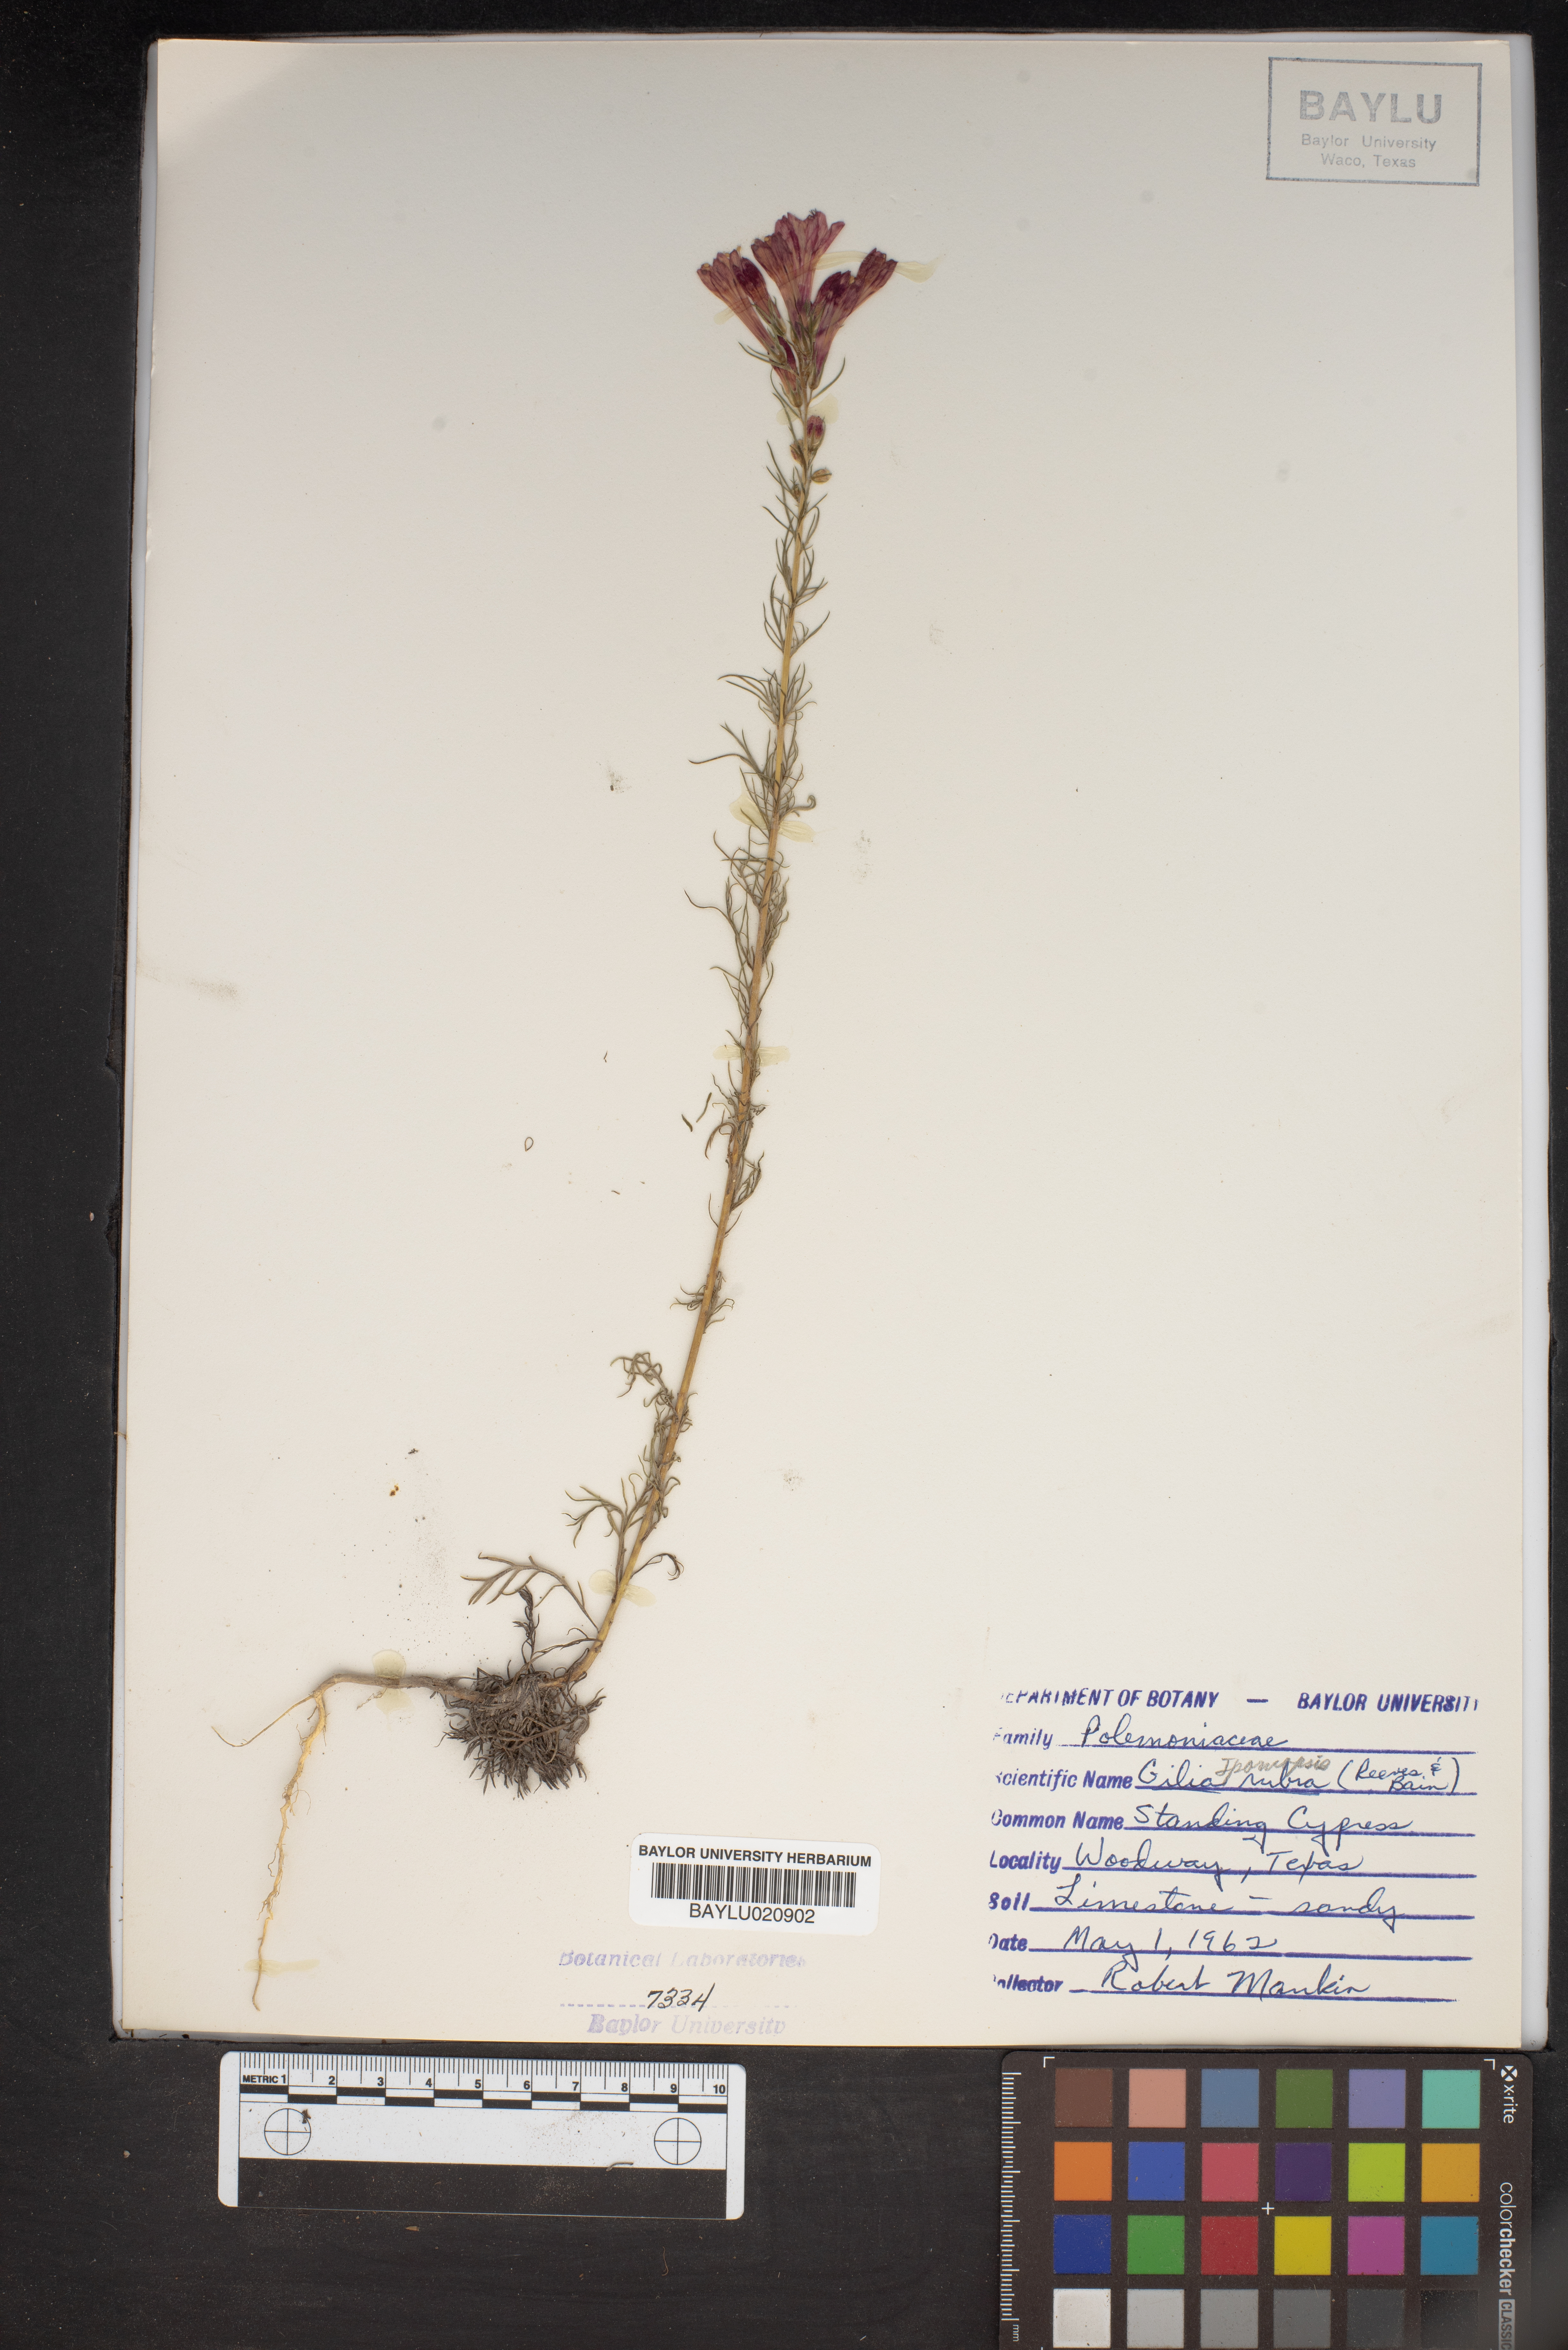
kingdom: Plantae
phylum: Tracheophyta
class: Magnoliopsida
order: Ericales
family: Polemoniaceae
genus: Ipomopsis
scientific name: Ipomopsis rubra
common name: Skyrocket
